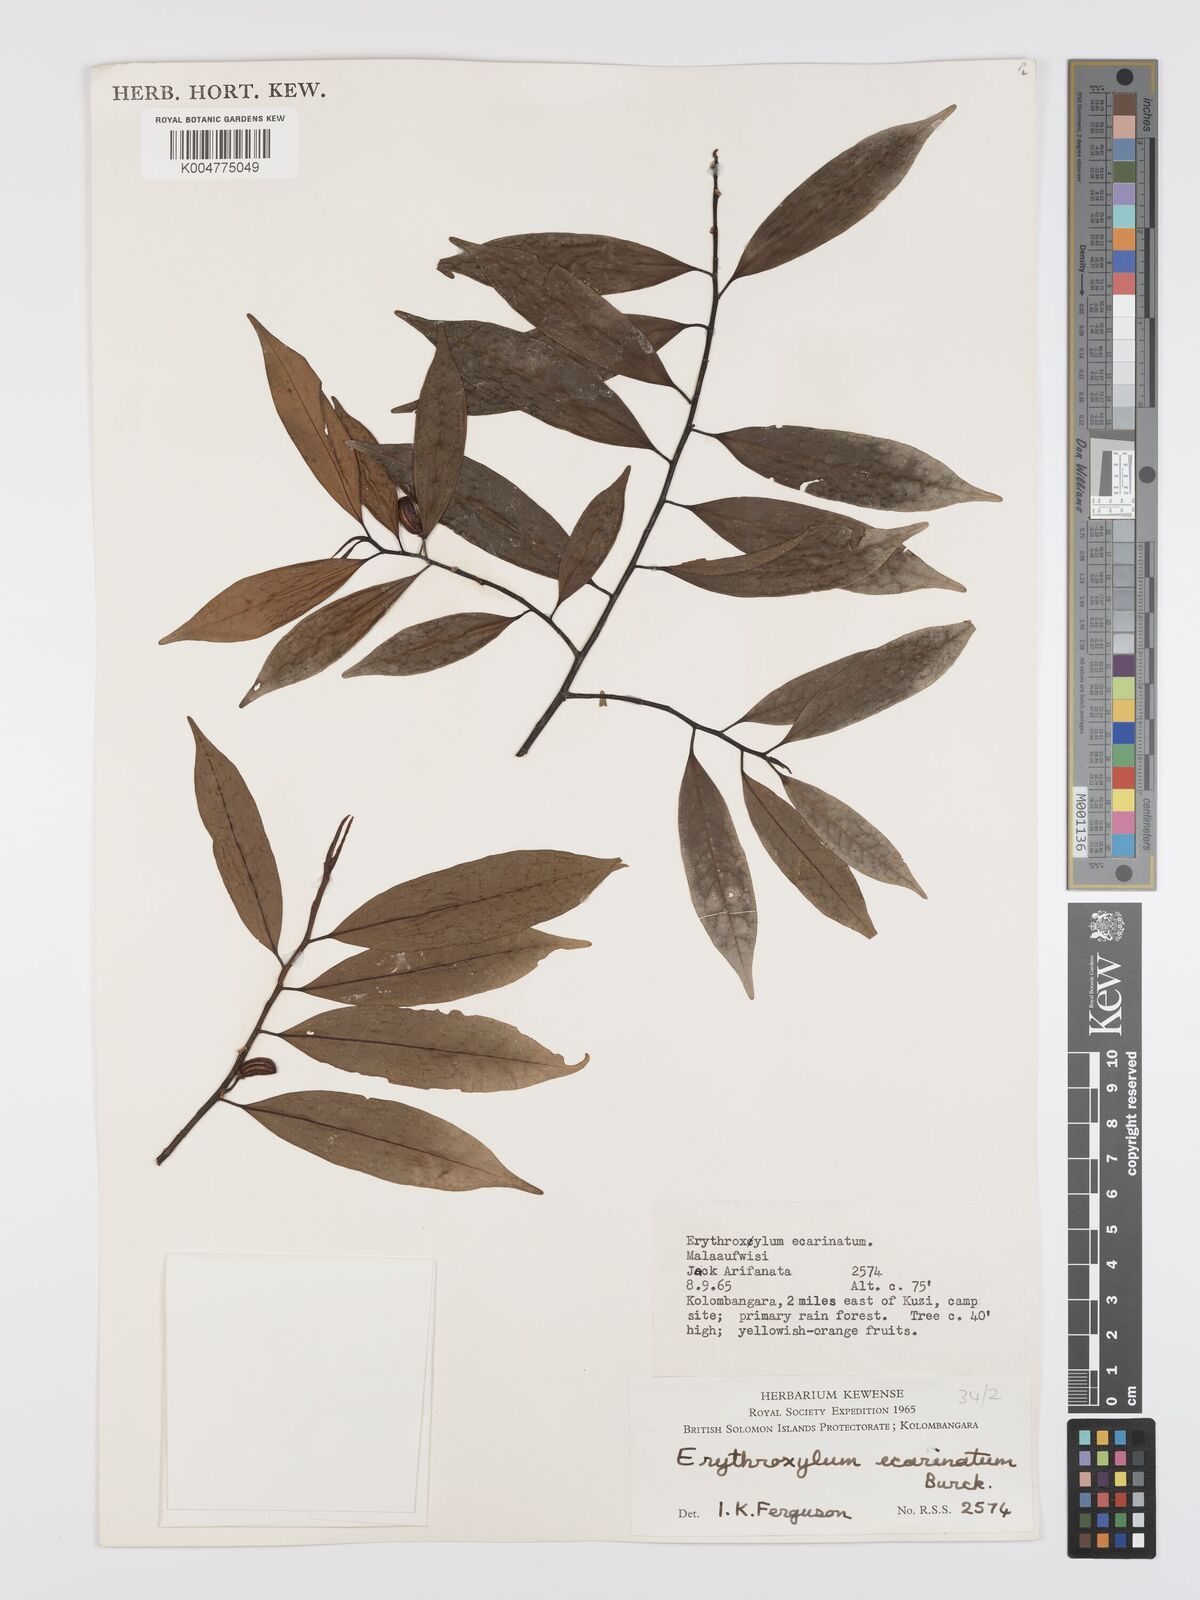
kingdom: Plantae
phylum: Tracheophyta
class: Magnoliopsida
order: Malpighiales
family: Erythroxylaceae
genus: Erythroxylum
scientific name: Erythroxylum ecarinatum
